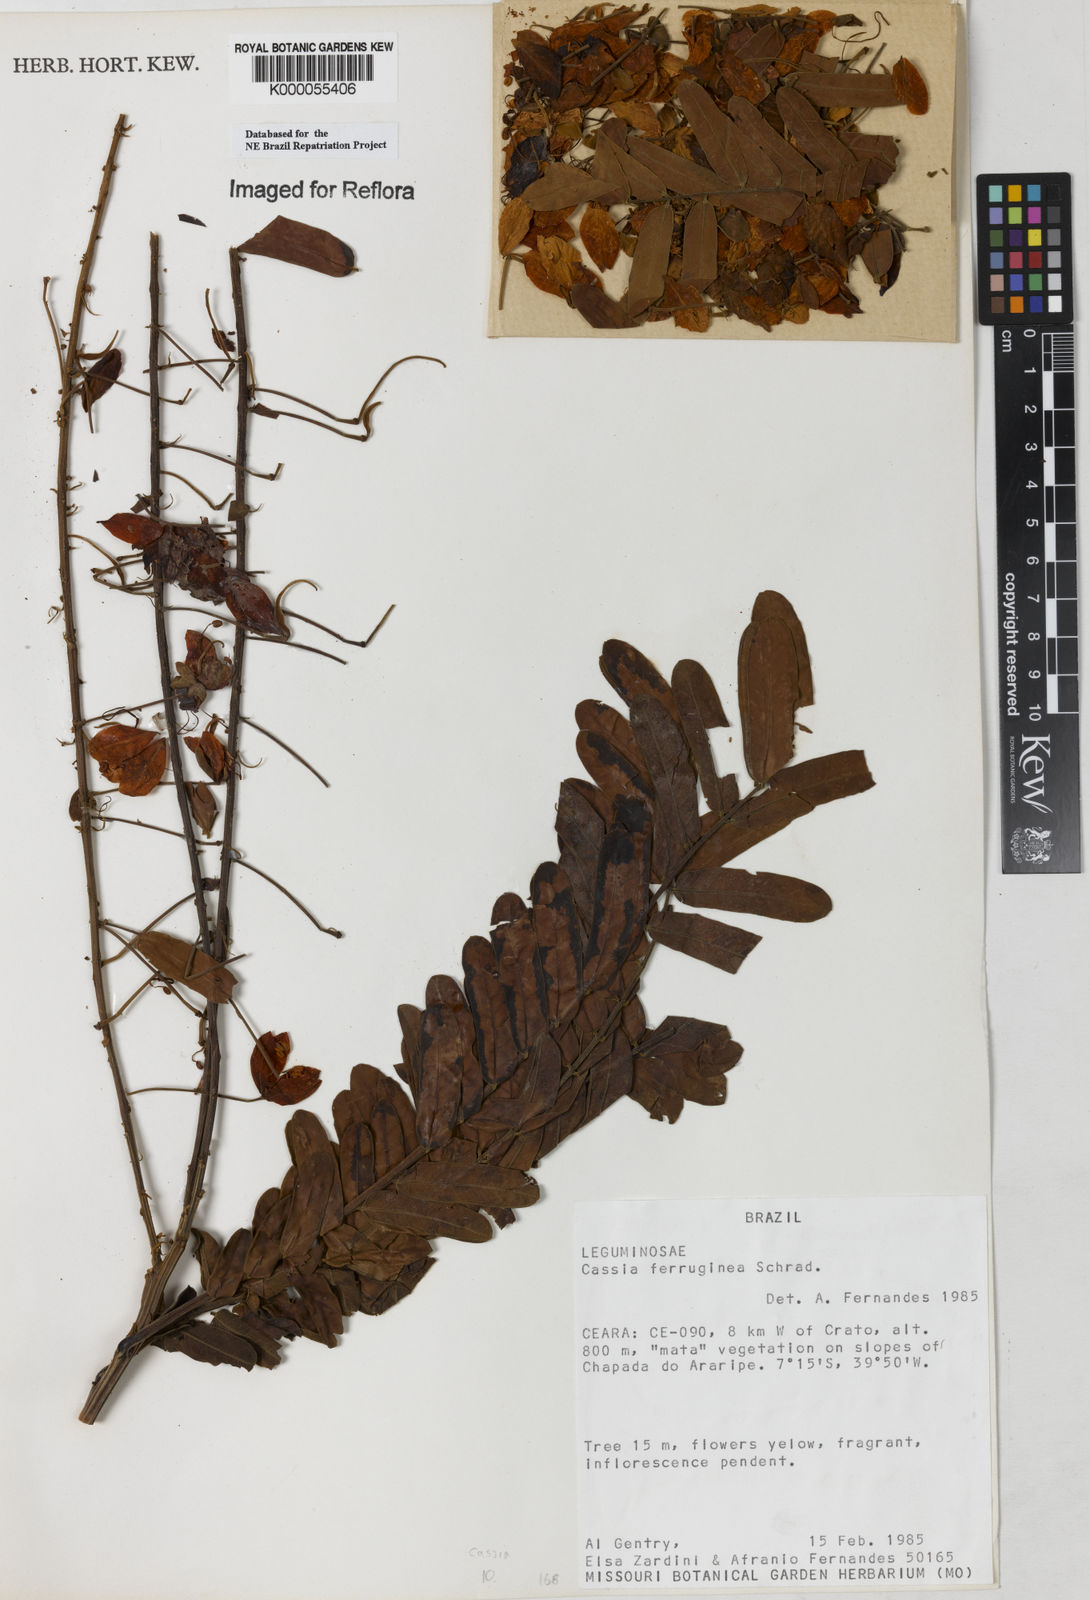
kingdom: Plantae
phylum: Tracheophyta
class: Magnoliopsida
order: Fabales
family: Fabaceae
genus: Cassia
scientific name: Cassia ferruginea
